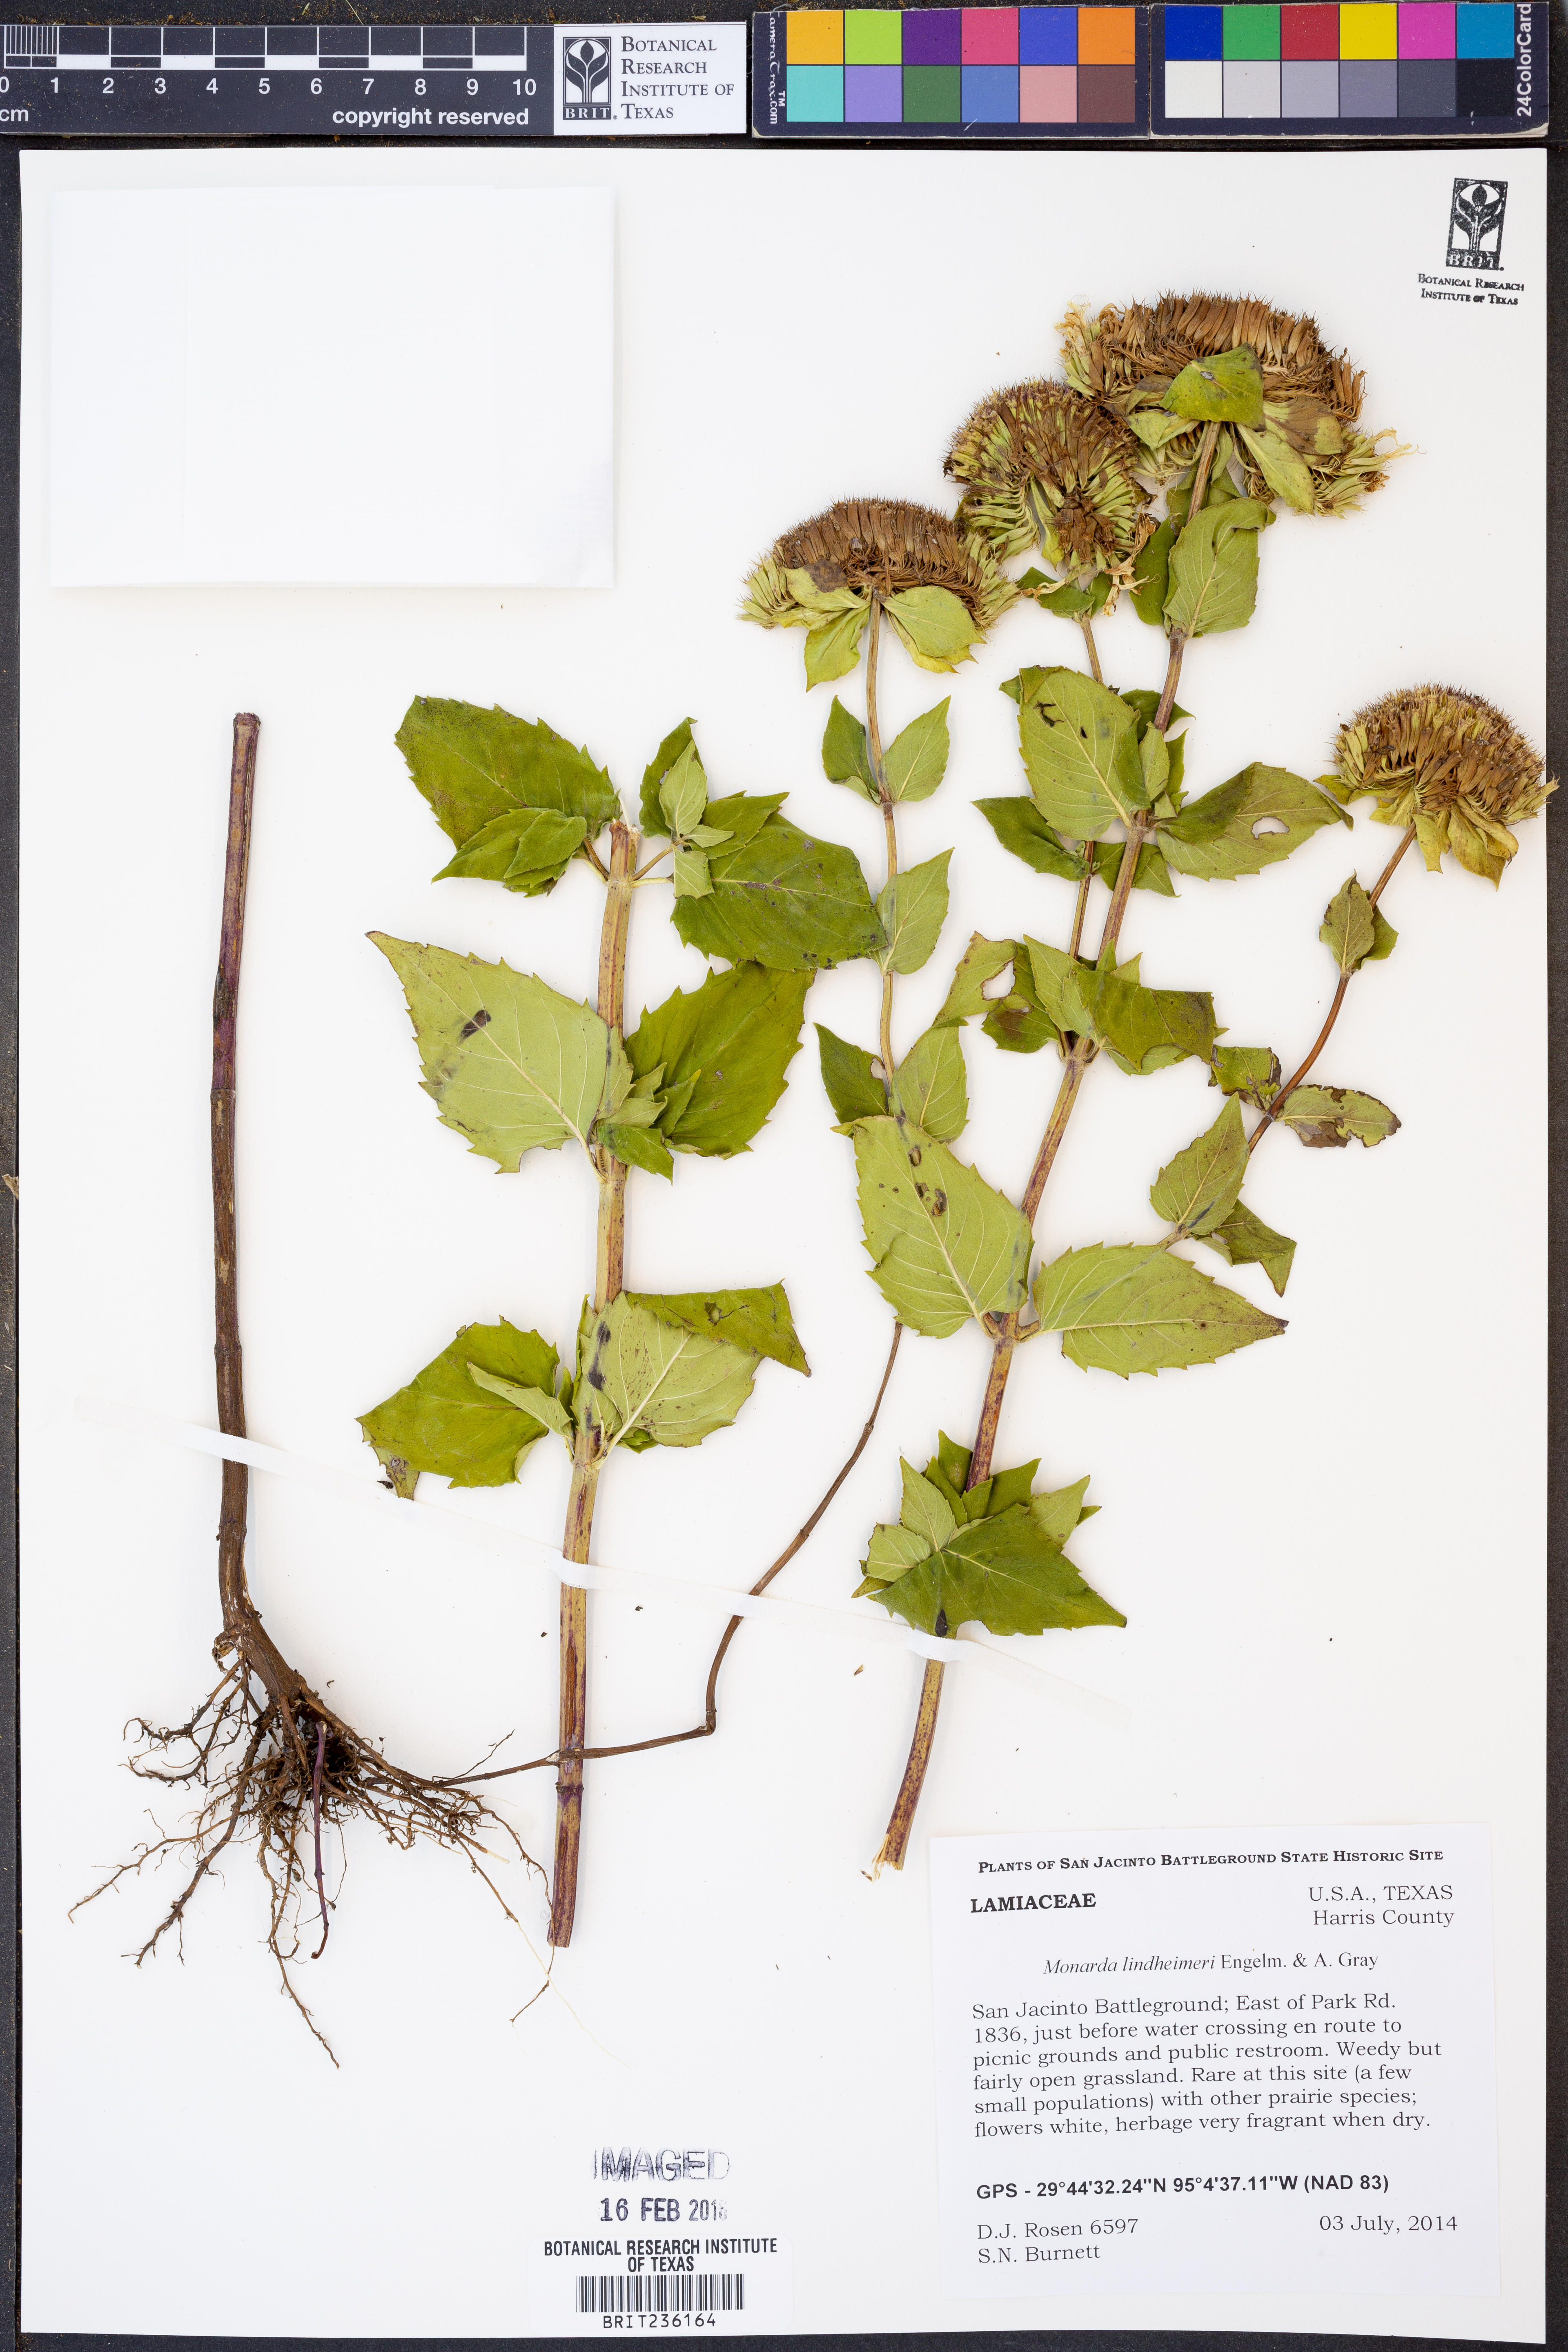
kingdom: Plantae
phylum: Tracheophyta
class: Magnoliopsida
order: Lamiales
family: Lamiaceae
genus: Monarda
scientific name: Monarda lindheimeri
